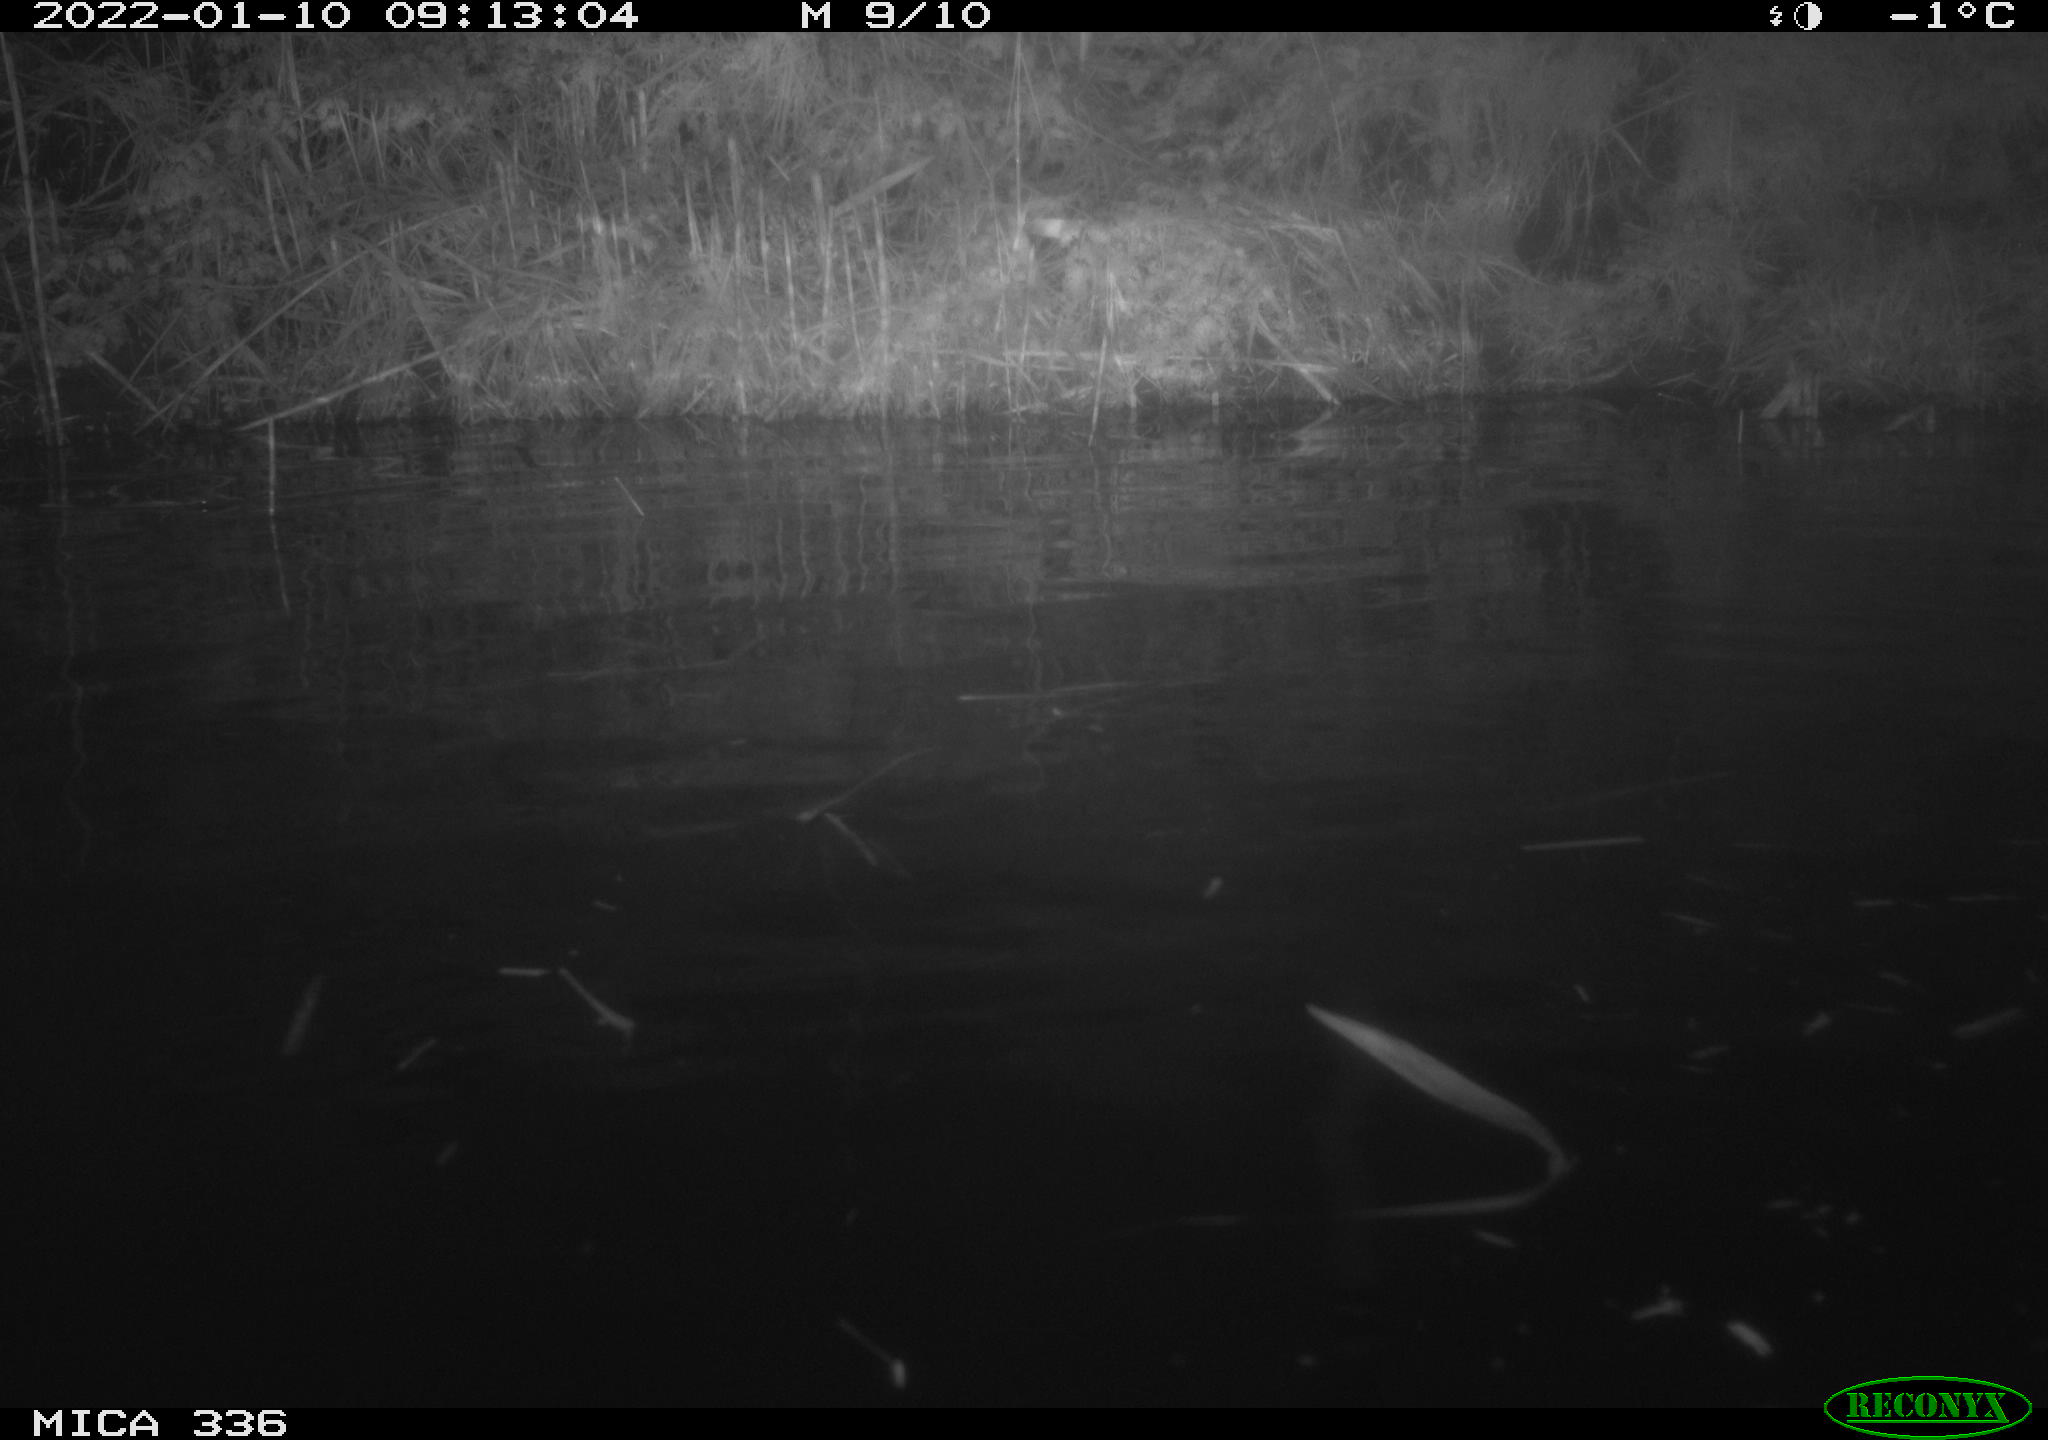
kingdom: Animalia
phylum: Chordata
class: Aves
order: Anseriformes
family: Anatidae
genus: Anas
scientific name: Anas platyrhynchos
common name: Mallard
